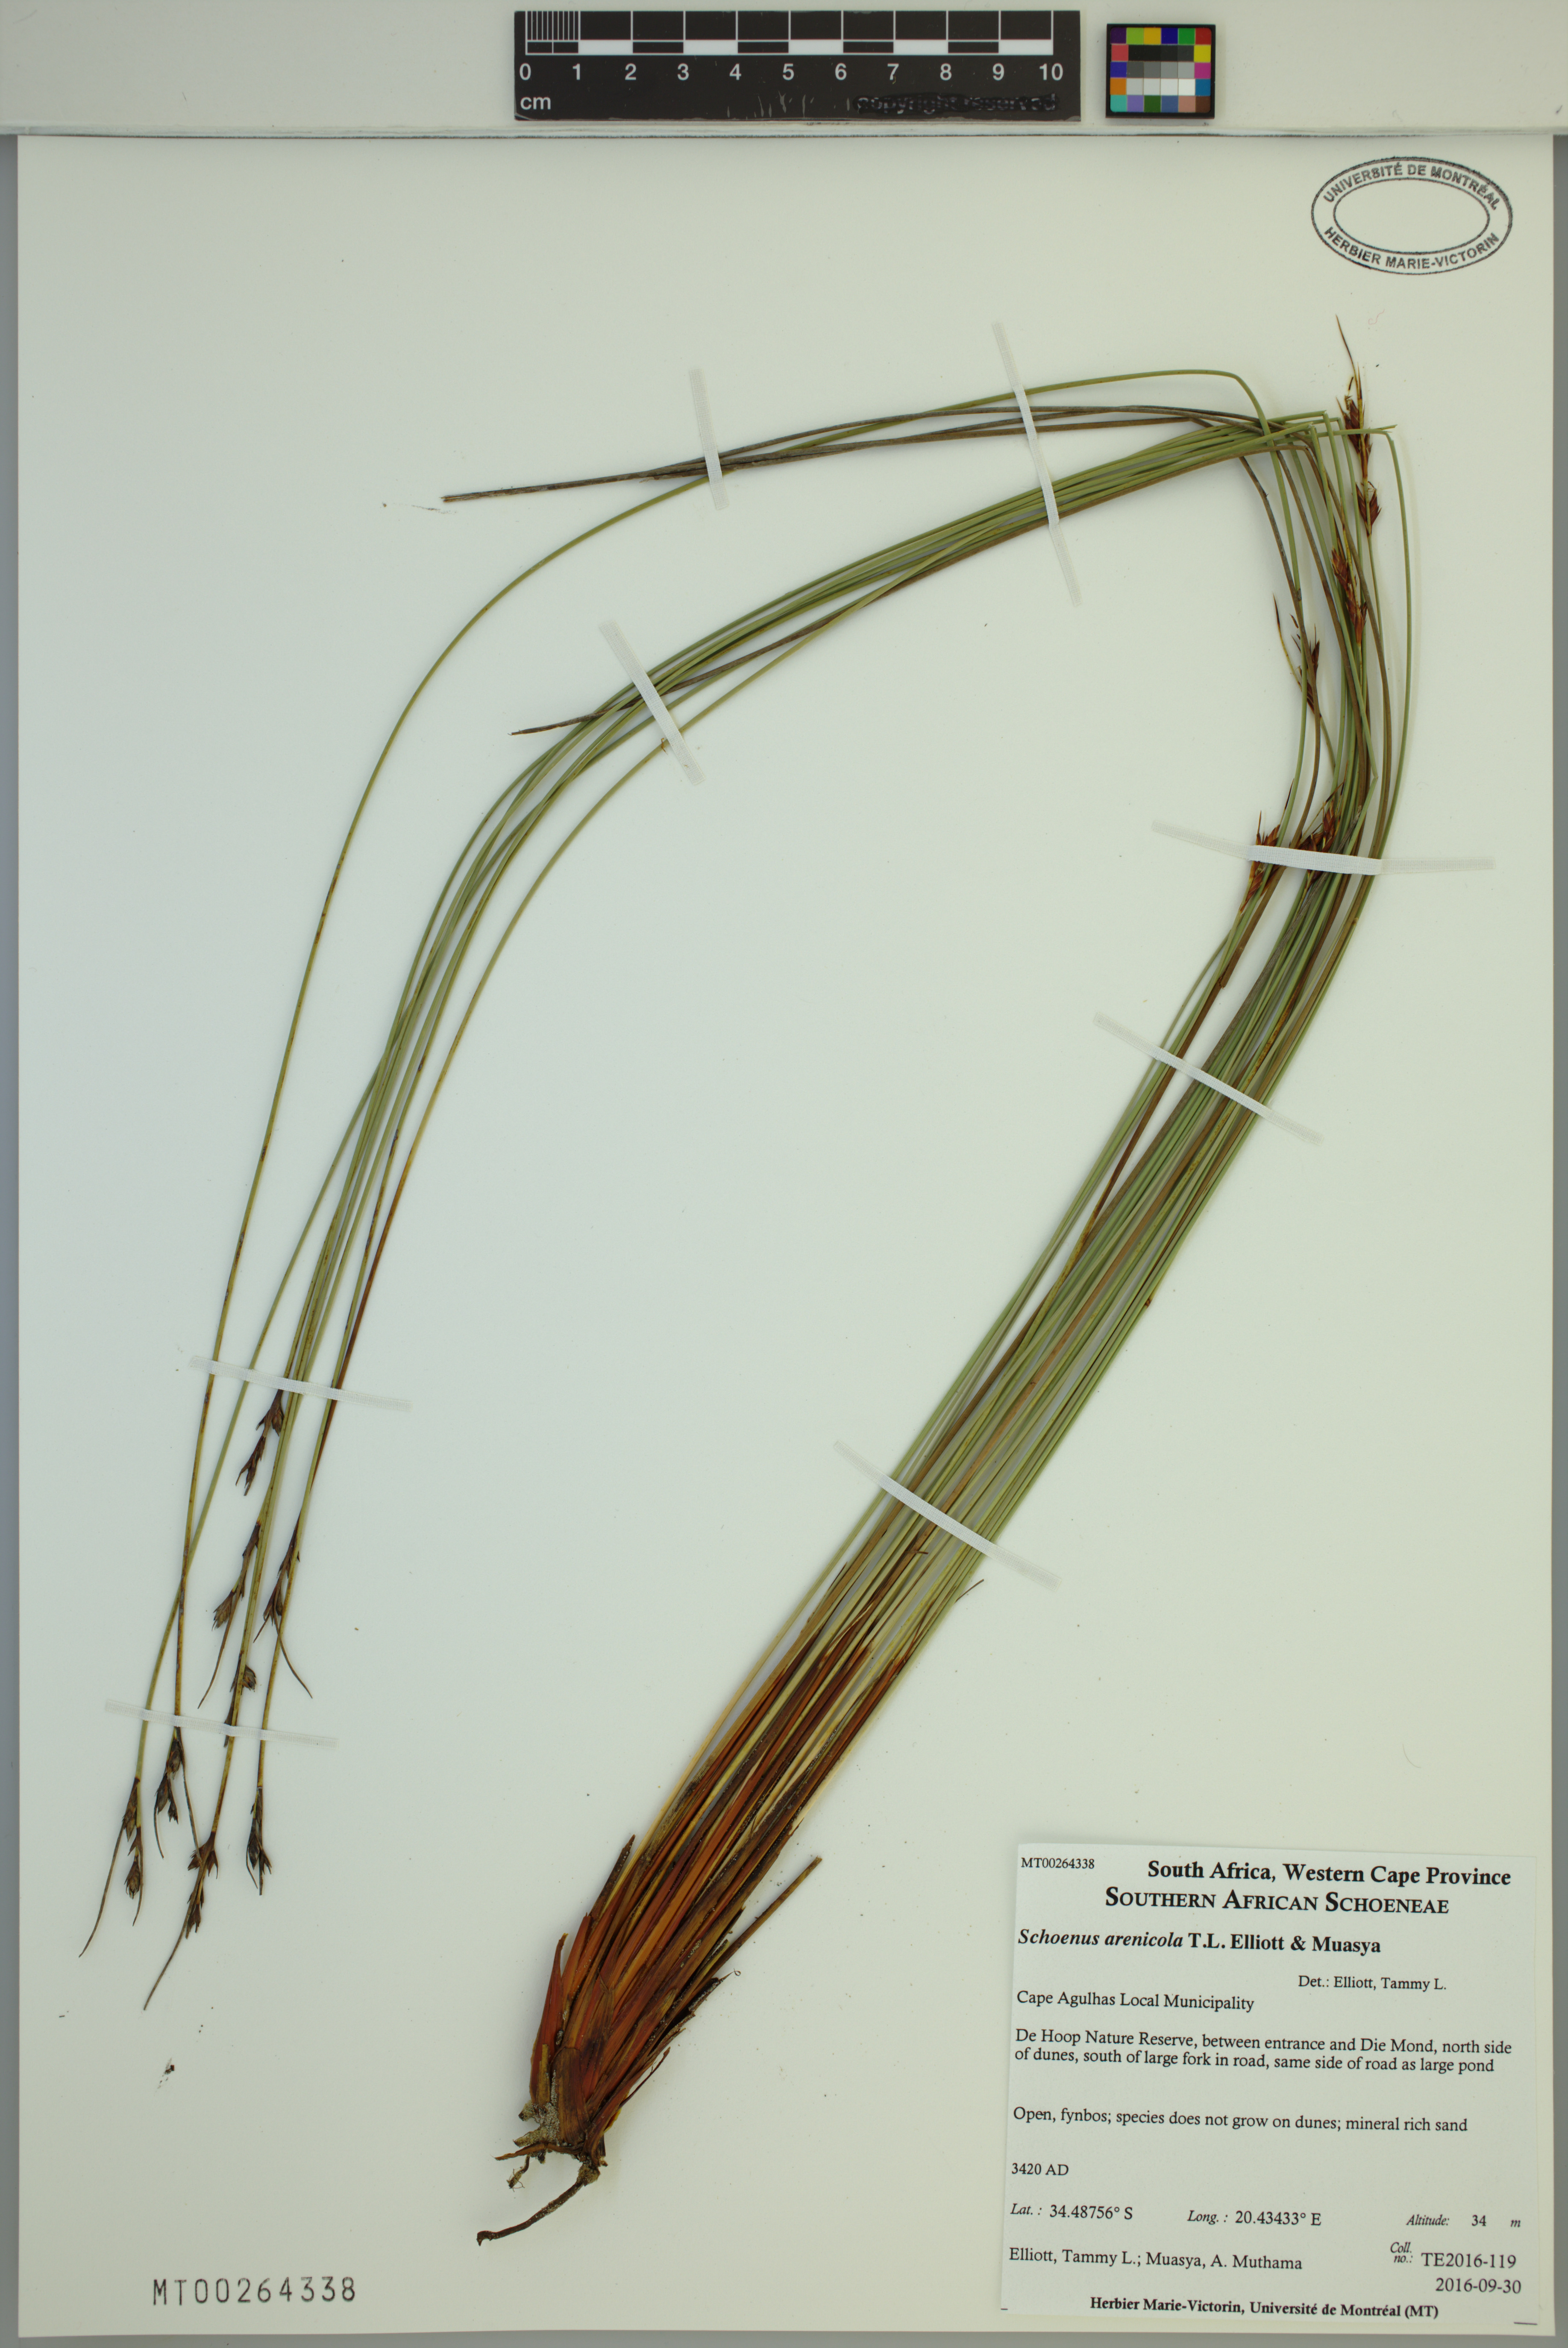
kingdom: Plantae
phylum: Tracheophyta
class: Liliopsida
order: Poales
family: Cyperaceae
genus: Schoenus
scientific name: Schoenus arenicola
